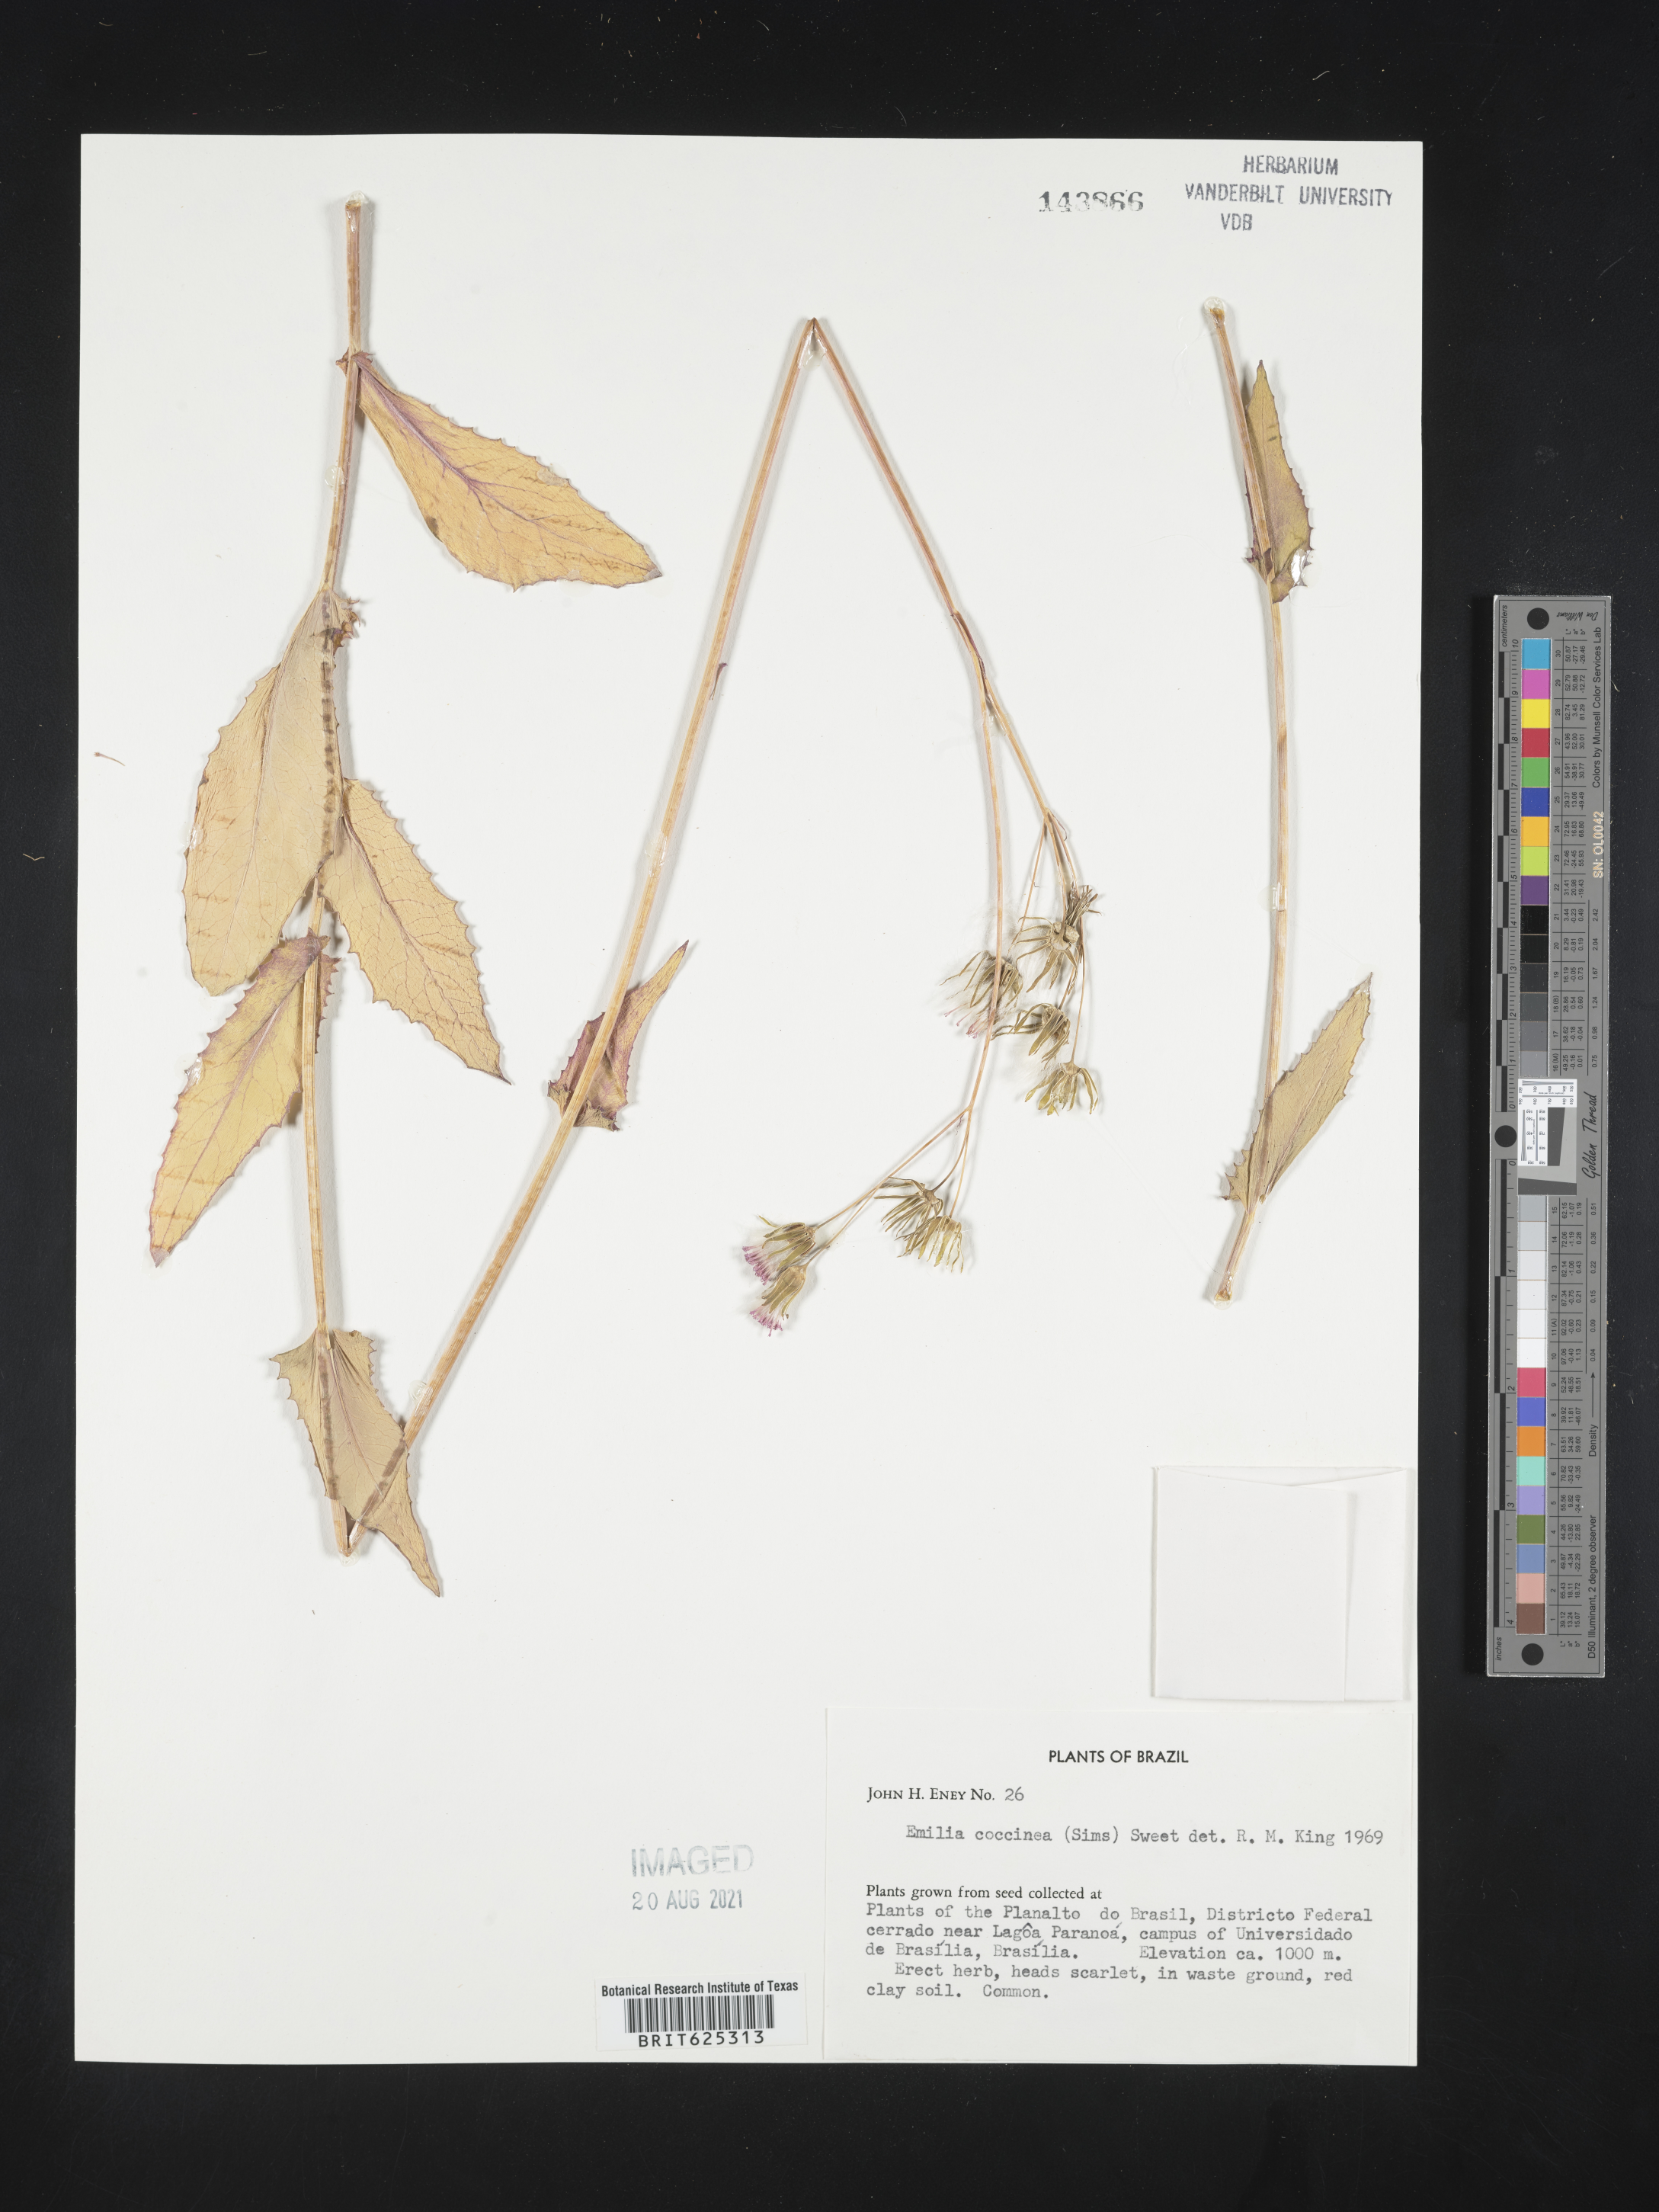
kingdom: Plantae
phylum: Tracheophyta
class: Magnoliopsida
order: Asterales
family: Asteraceae
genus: Emilia
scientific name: Emilia coccinea
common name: Scarlet tasselflower
